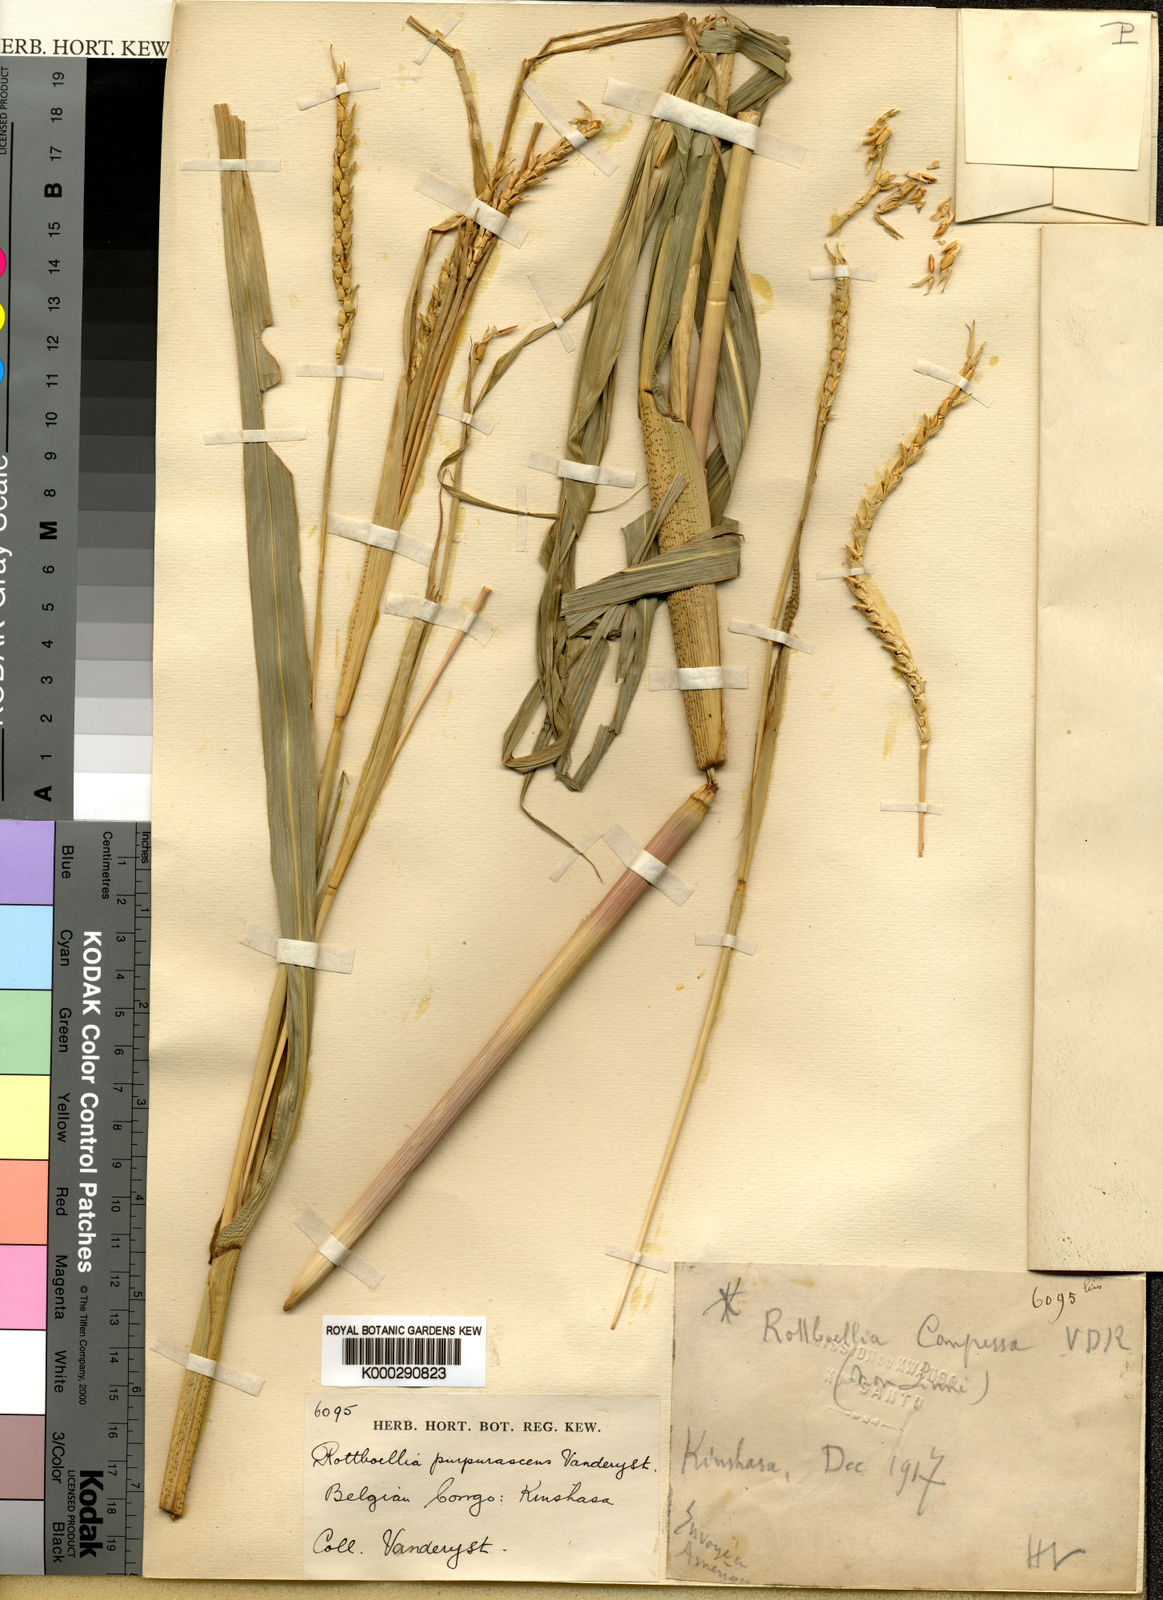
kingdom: Plantae
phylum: Tracheophyta
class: Liliopsida
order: Poales
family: Poaceae
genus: Rottboellia
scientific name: Rottboellia purpurascens
